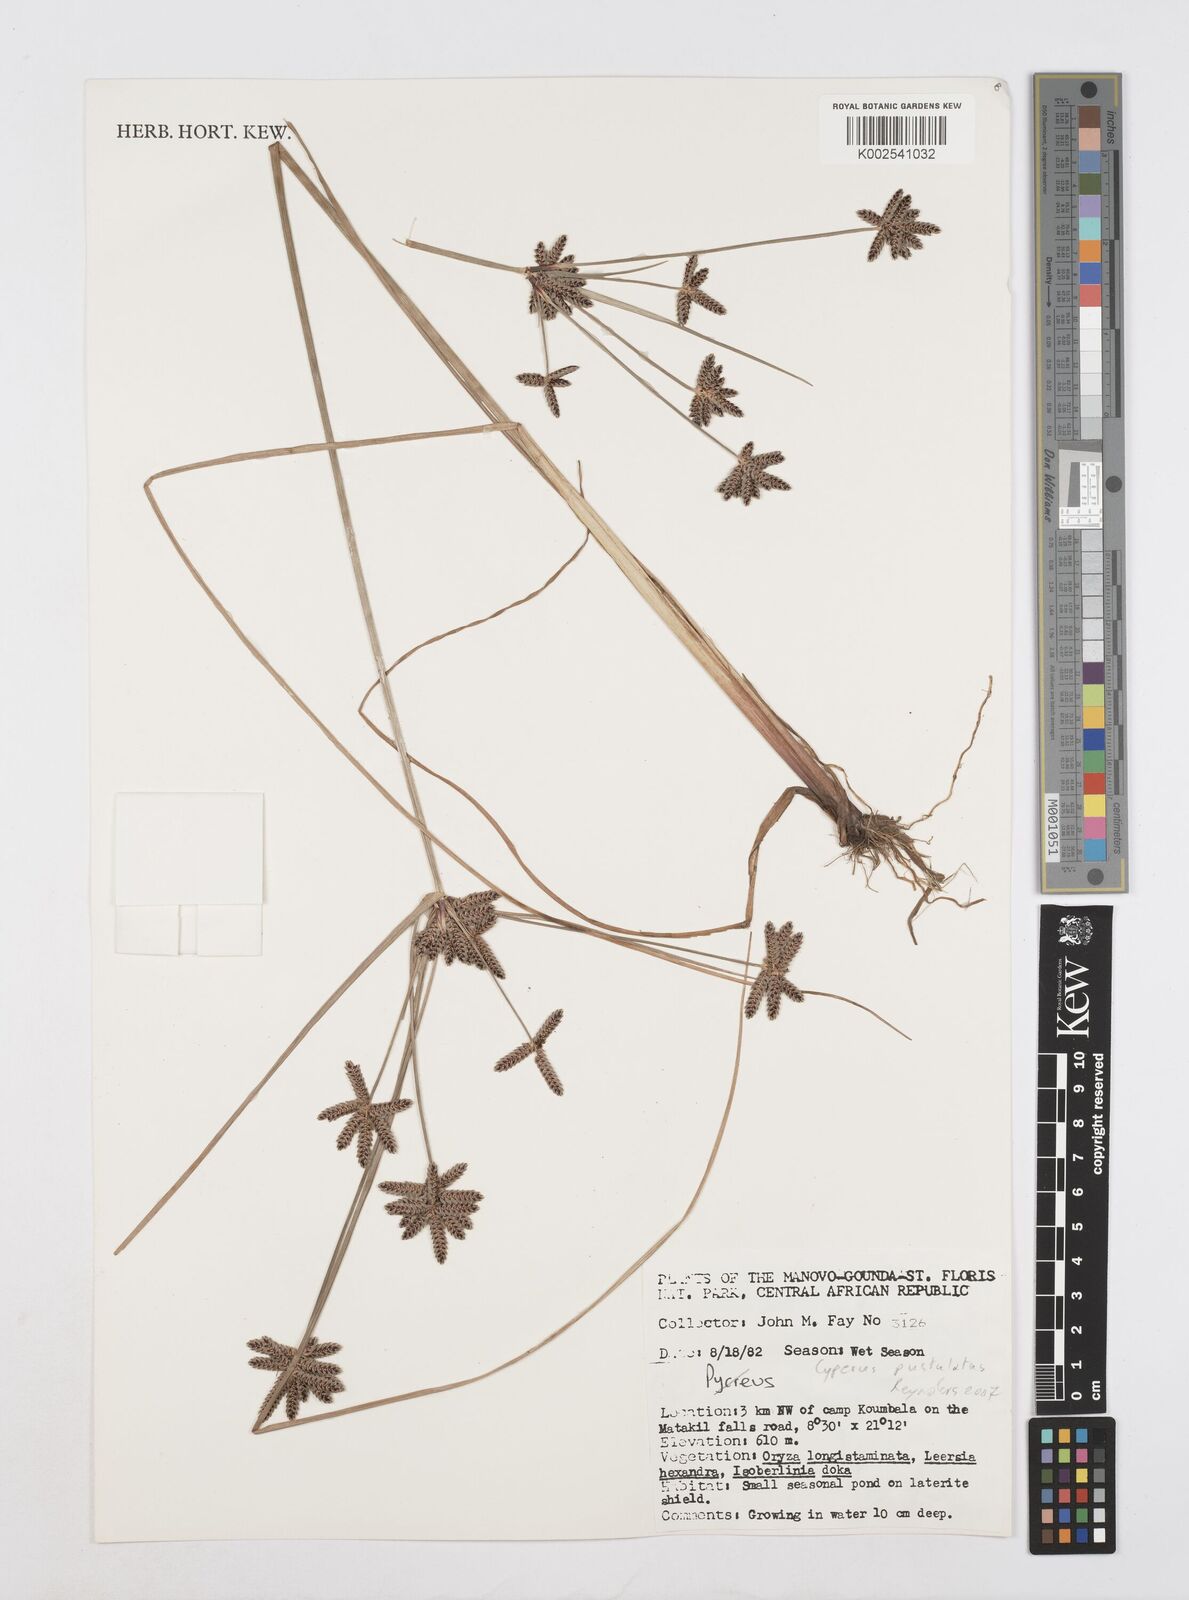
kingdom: Plantae
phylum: Tracheophyta
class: Liliopsida
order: Poales
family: Cyperaceae
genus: Cyperus
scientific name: Cyperus
